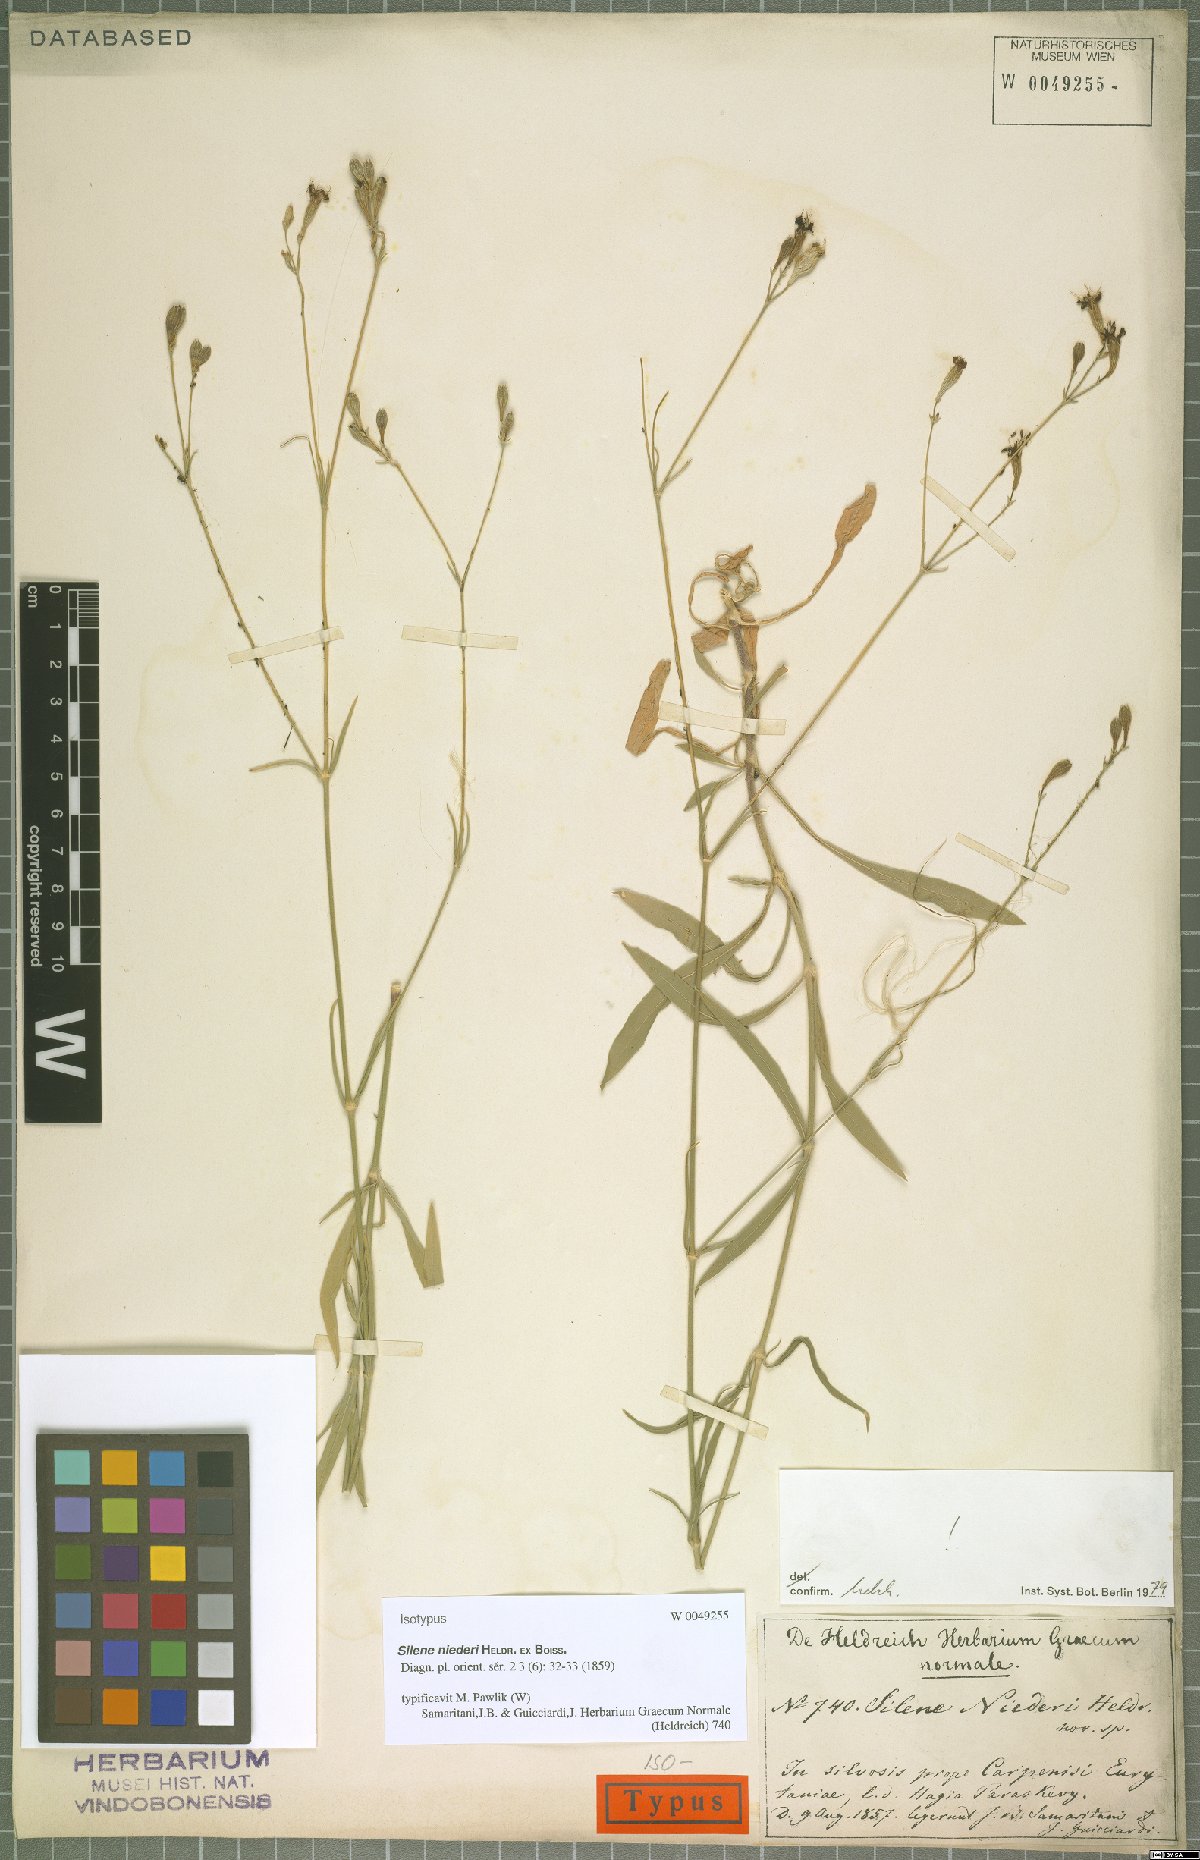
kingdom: Plantae
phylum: Tracheophyta
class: Magnoliopsida
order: Caryophyllales
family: Caryophyllaceae
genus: Silene
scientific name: Silene niederi
